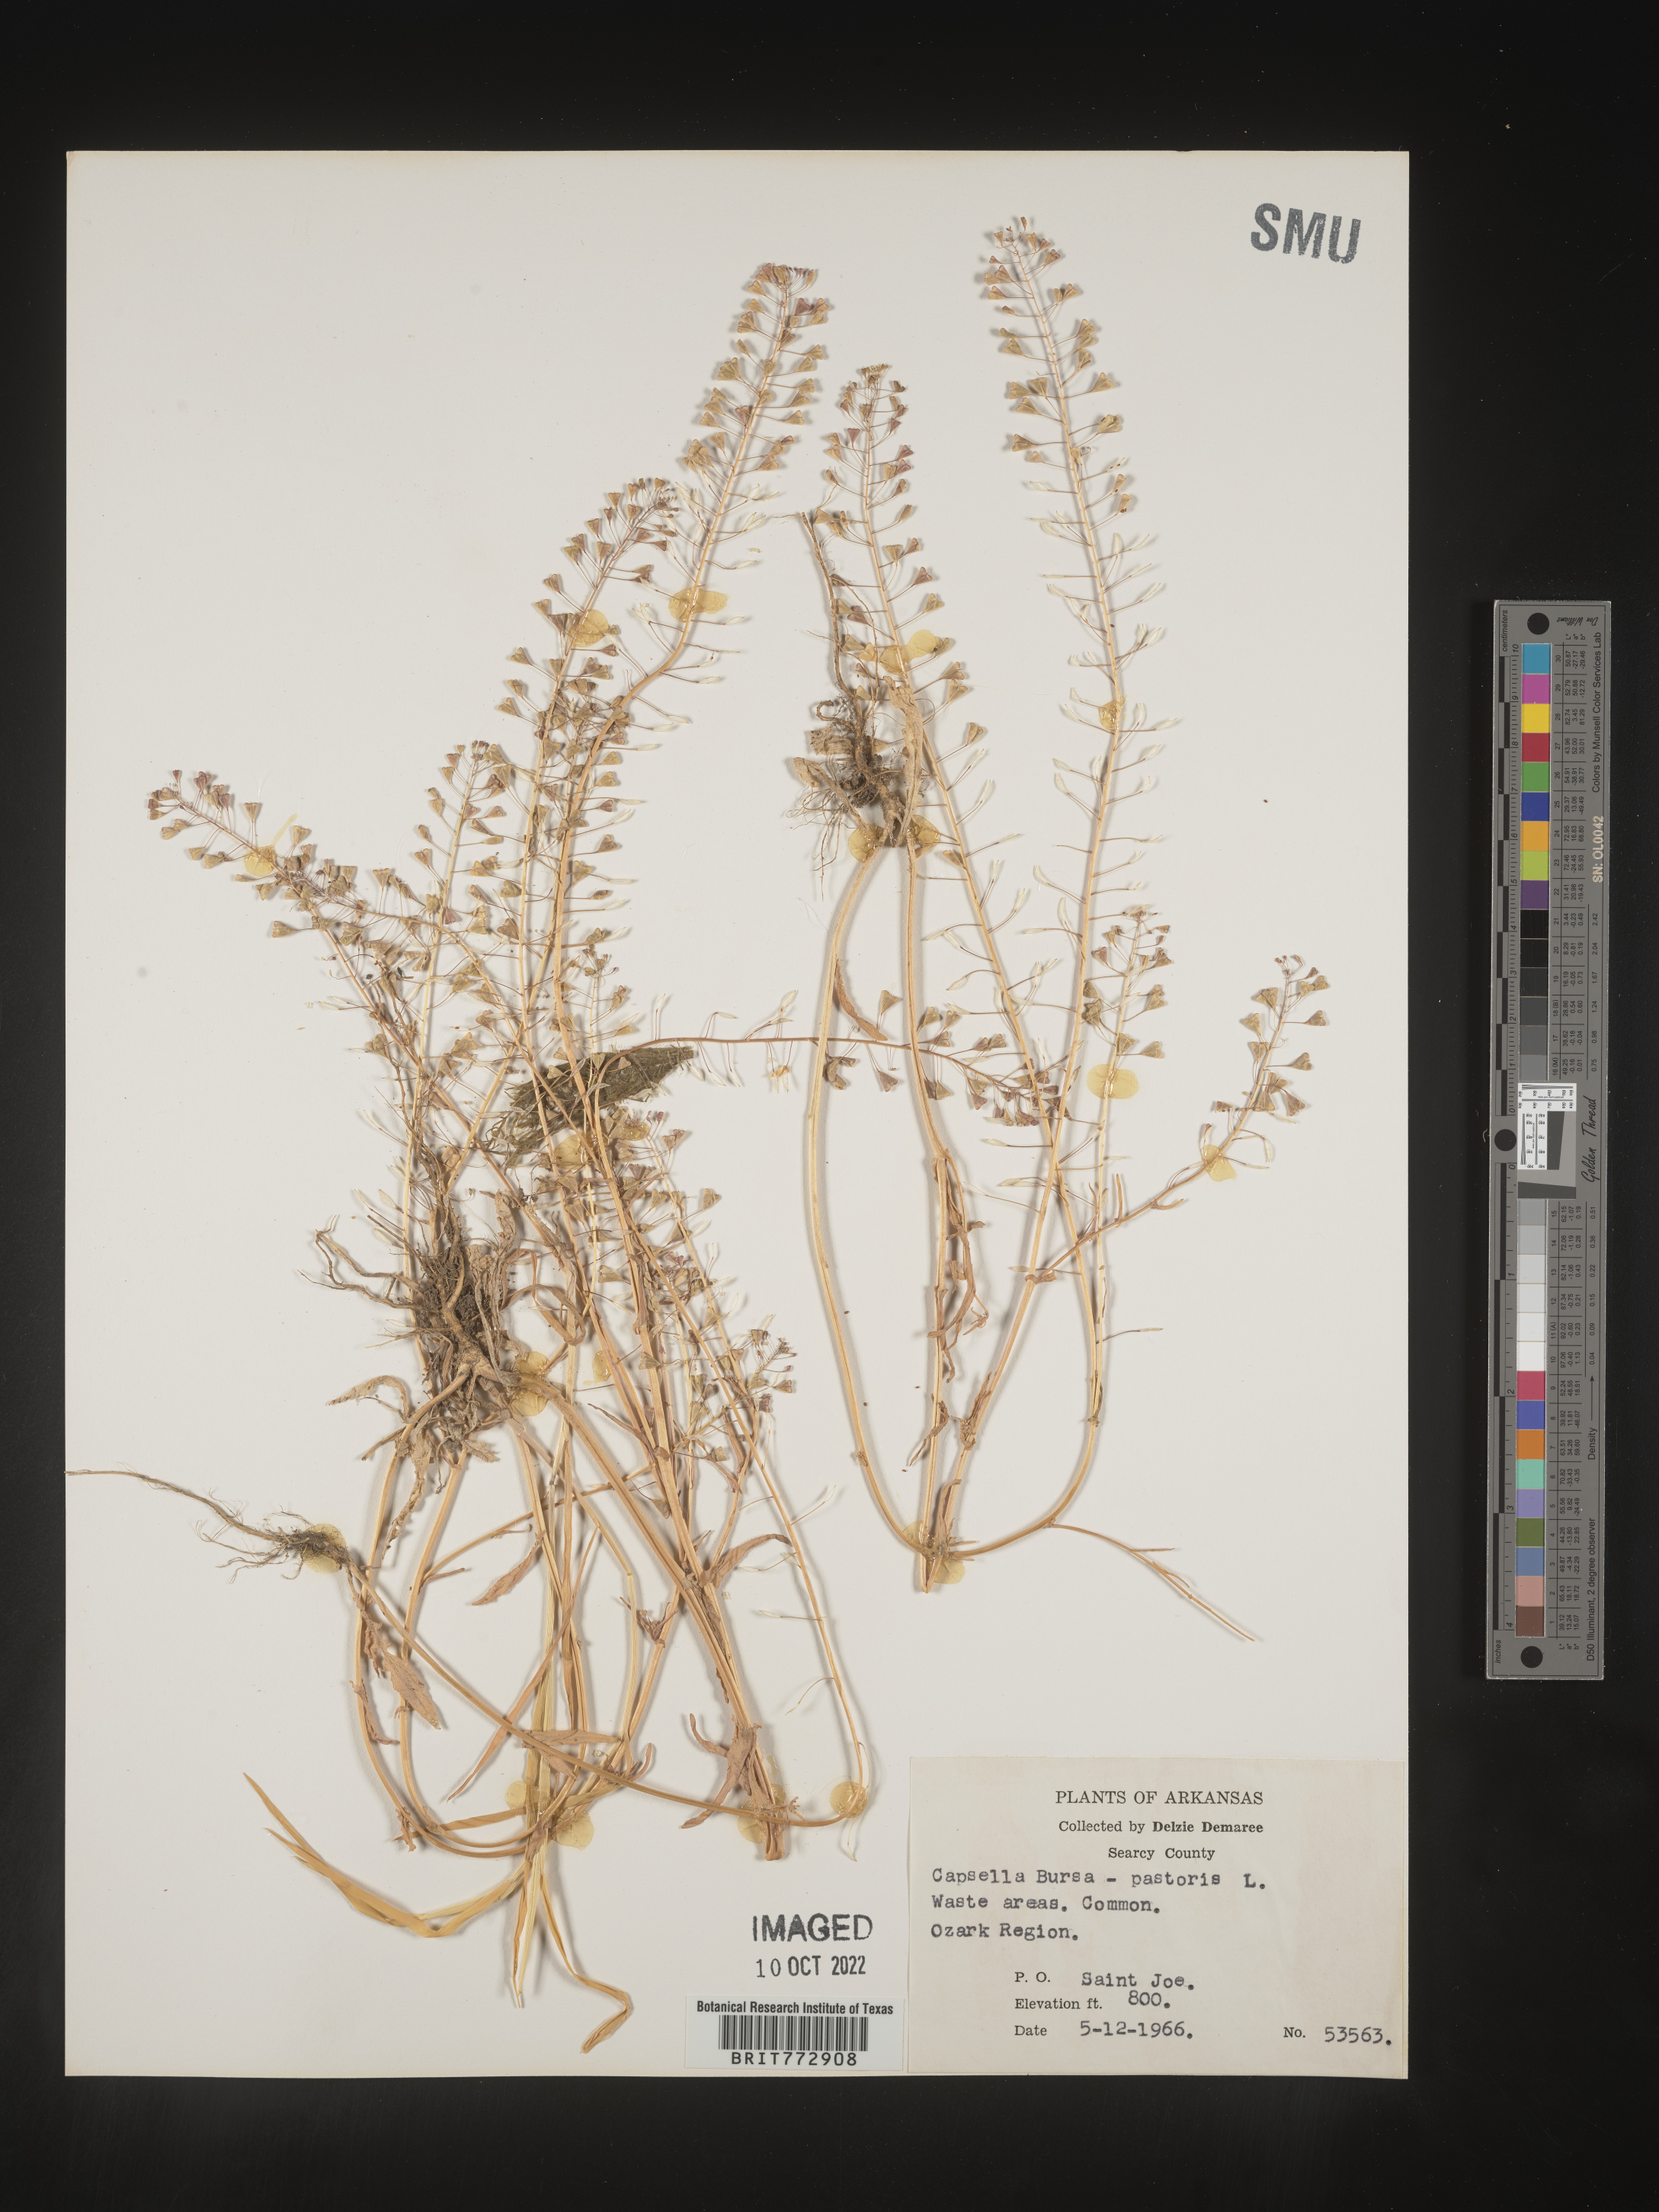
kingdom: Plantae
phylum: Tracheophyta
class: Magnoliopsida
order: Brassicales
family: Brassicaceae
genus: Capsella
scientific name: Capsella bursa-pastoris
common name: Shepherd's purse
